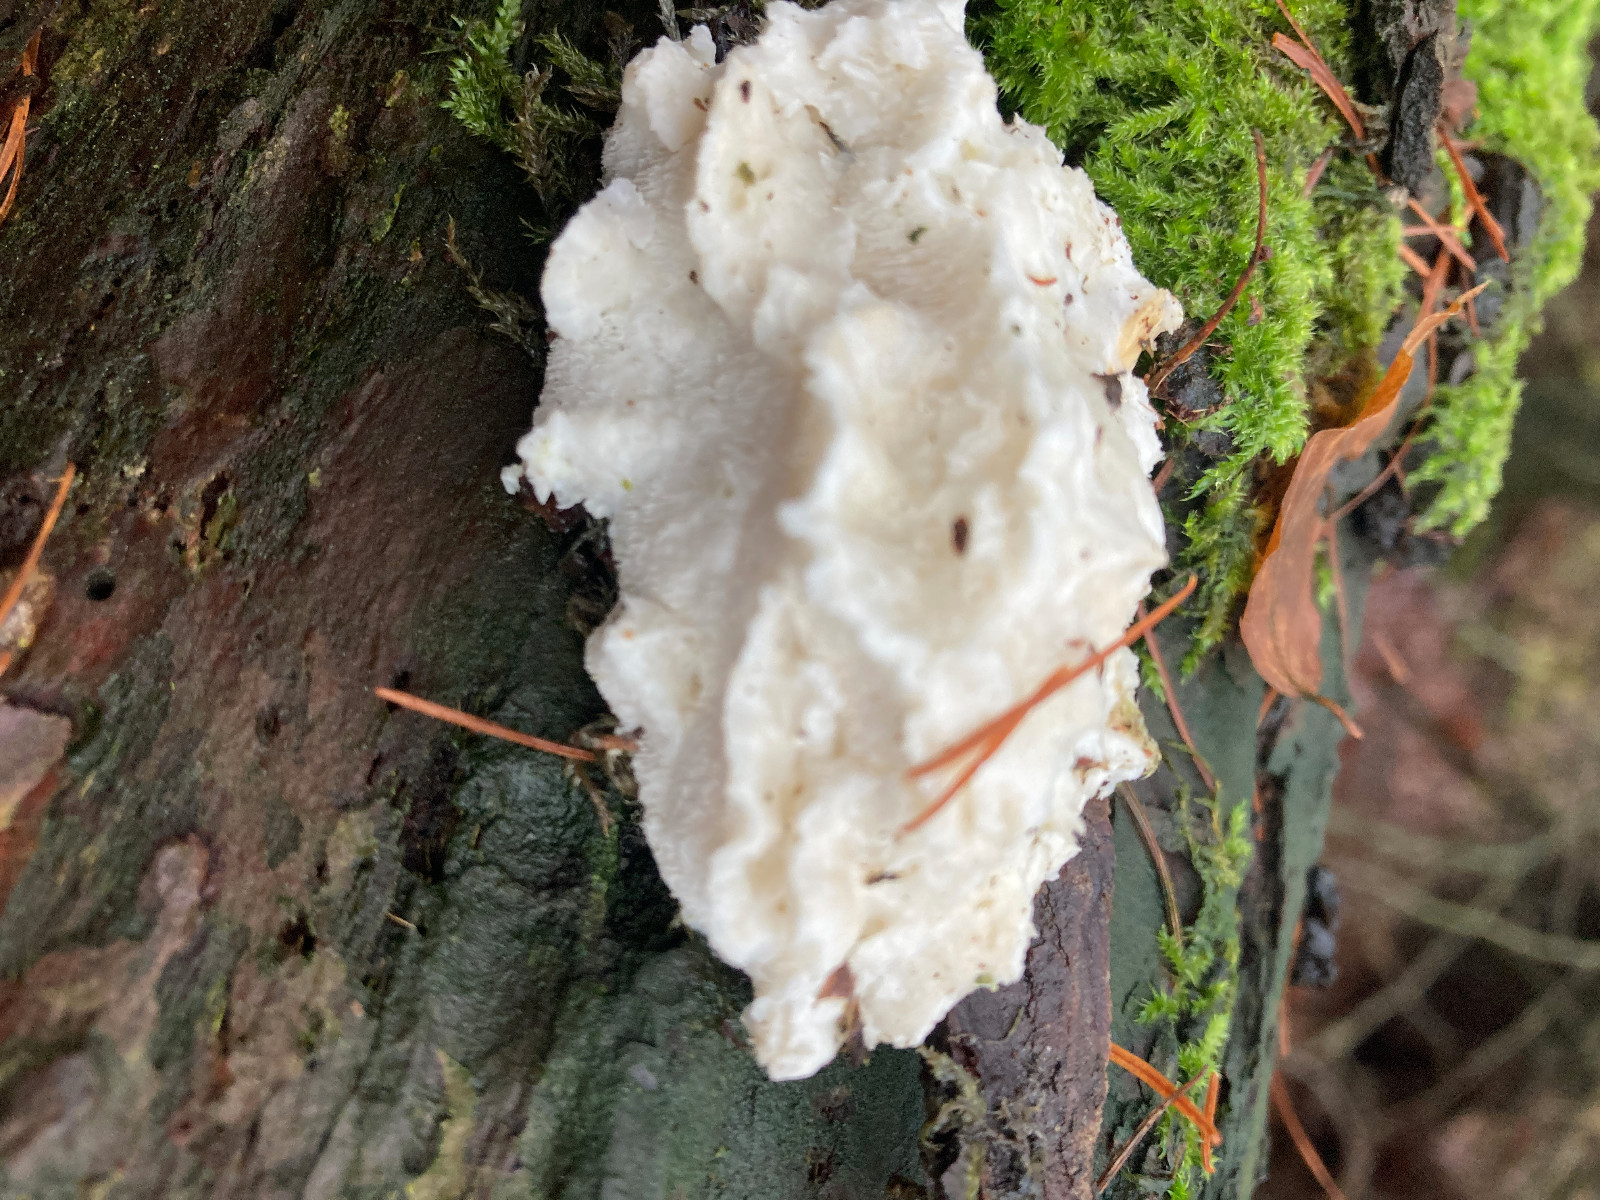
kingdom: Fungi
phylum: Basidiomycota
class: Agaricomycetes
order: Polyporales
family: Fomitopsidaceae
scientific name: Fomitopsidaceae
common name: hovporesvampfamilien
